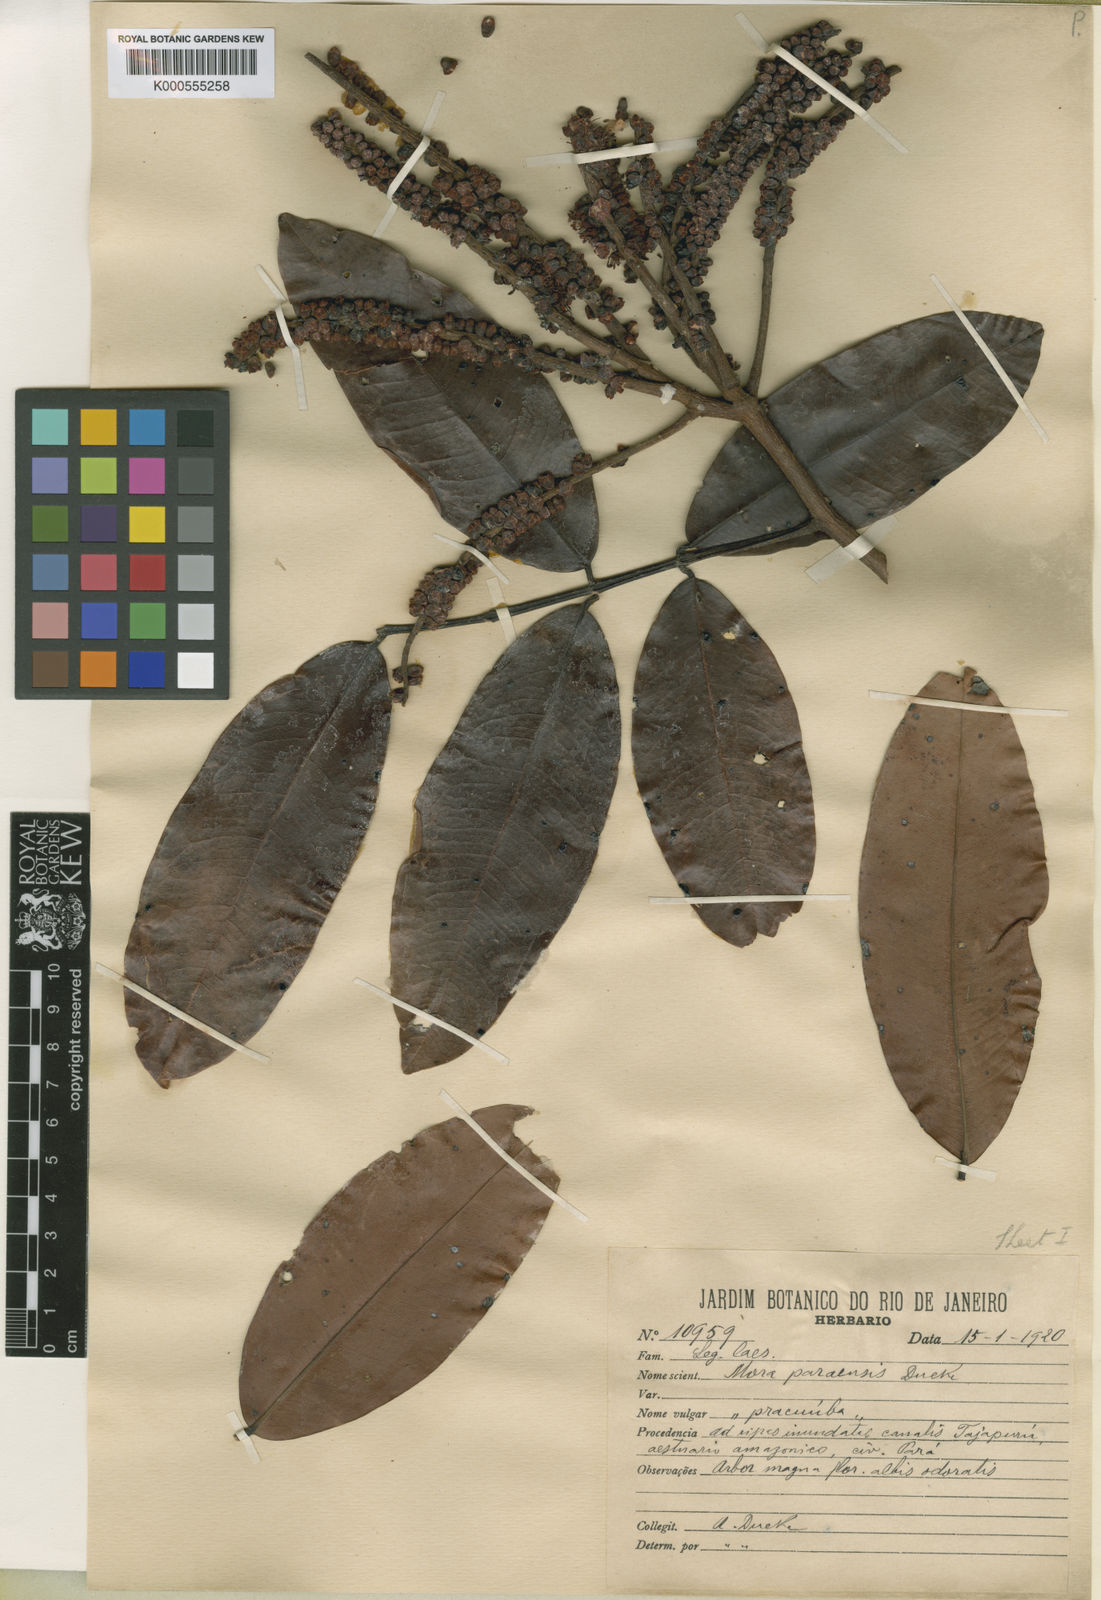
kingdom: Plantae
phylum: Tracheophyta
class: Magnoliopsida
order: Fabales
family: Fabaceae
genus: Mora
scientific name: Mora paraensis
